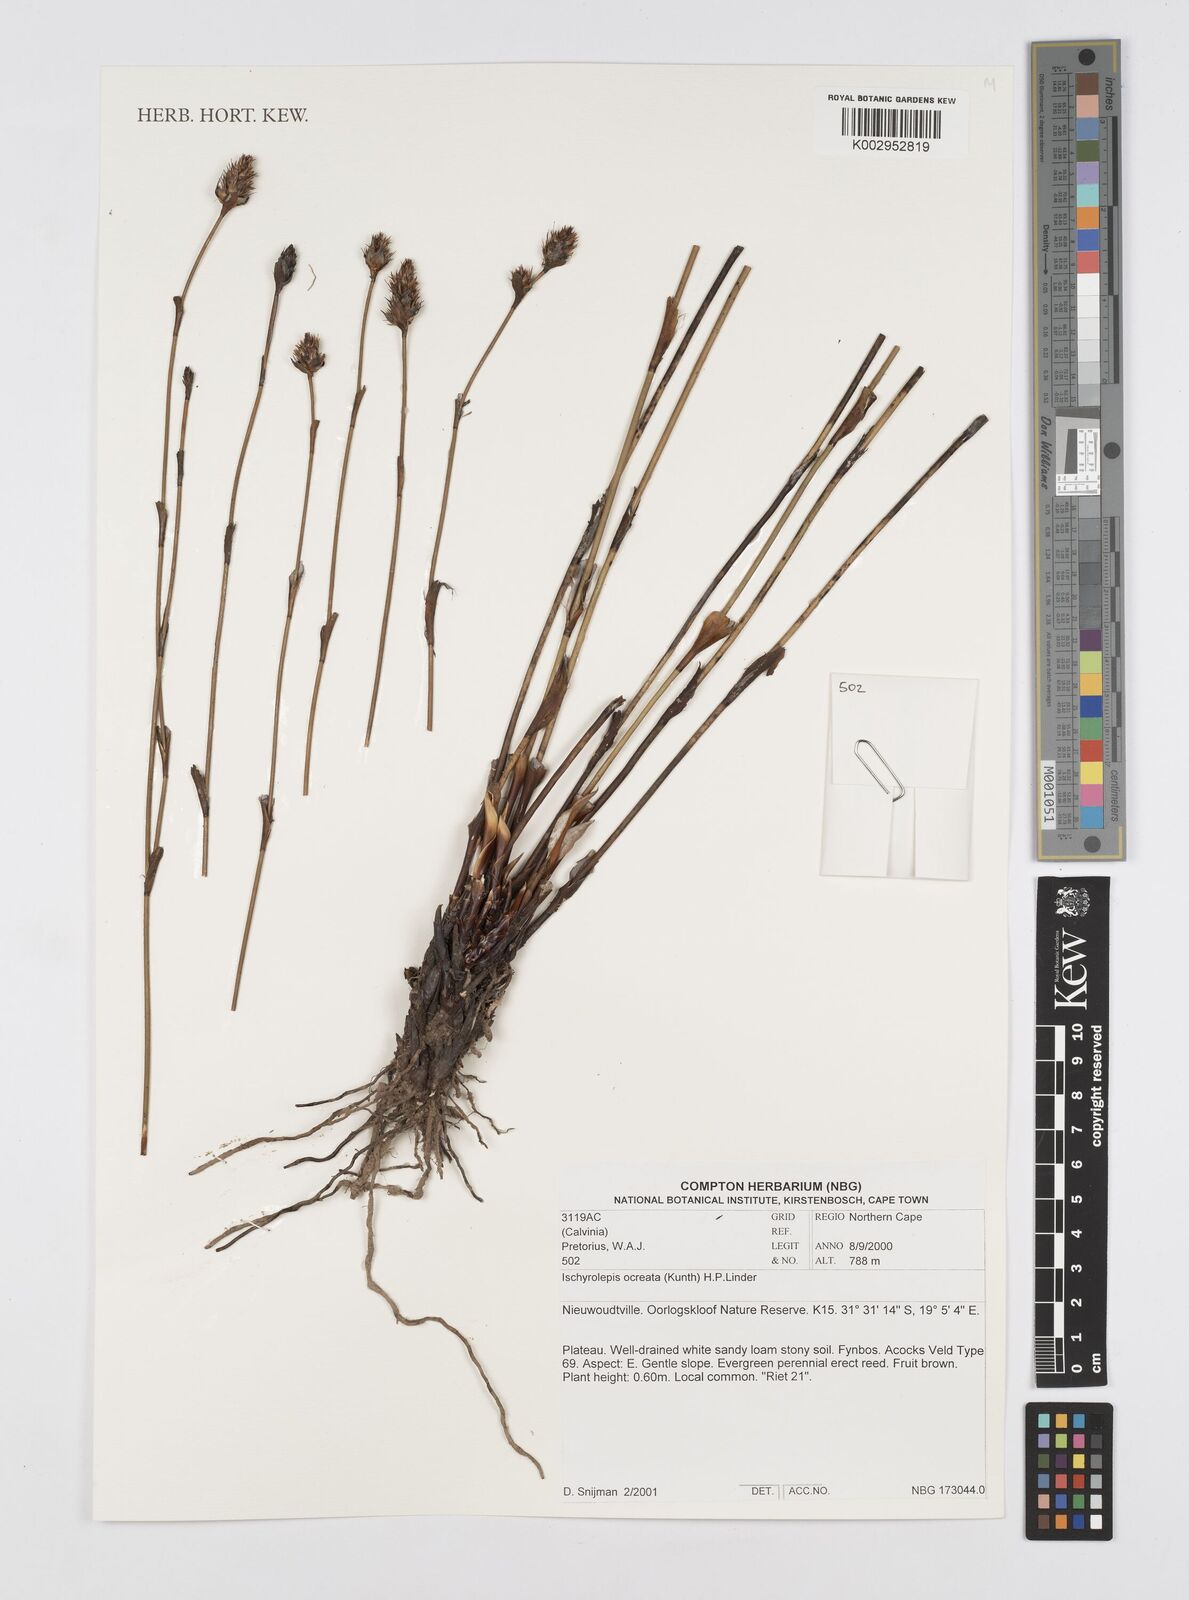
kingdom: Plantae
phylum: Tracheophyta
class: Liliopsida
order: Poales
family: Restionaceae
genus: Restio
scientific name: Restio ocreatus
